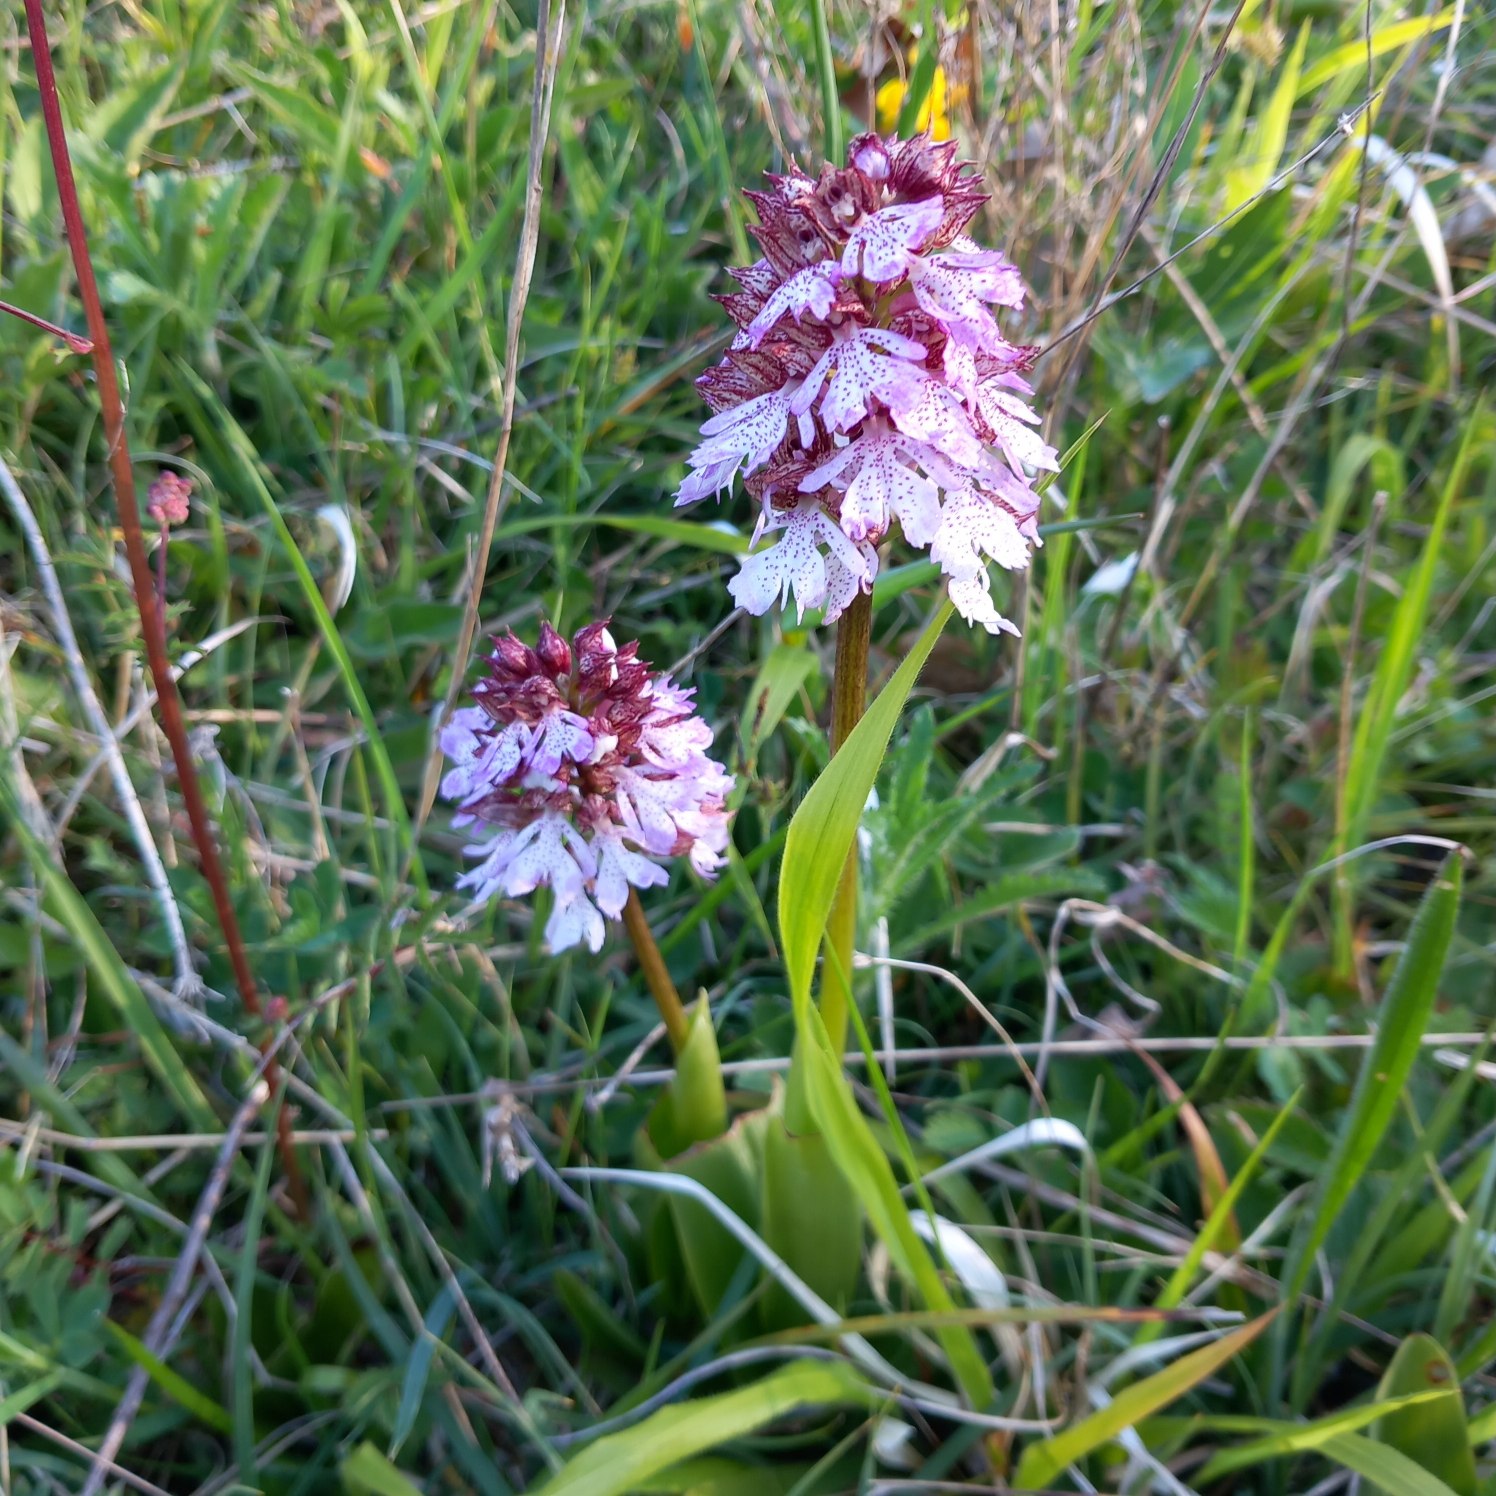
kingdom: Plantae
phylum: Tracheophyta
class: Liliopsida
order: Asparagales
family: Orchidaceae
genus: Orchis
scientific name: Orchis purpurea
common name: Stor gøgeurt
